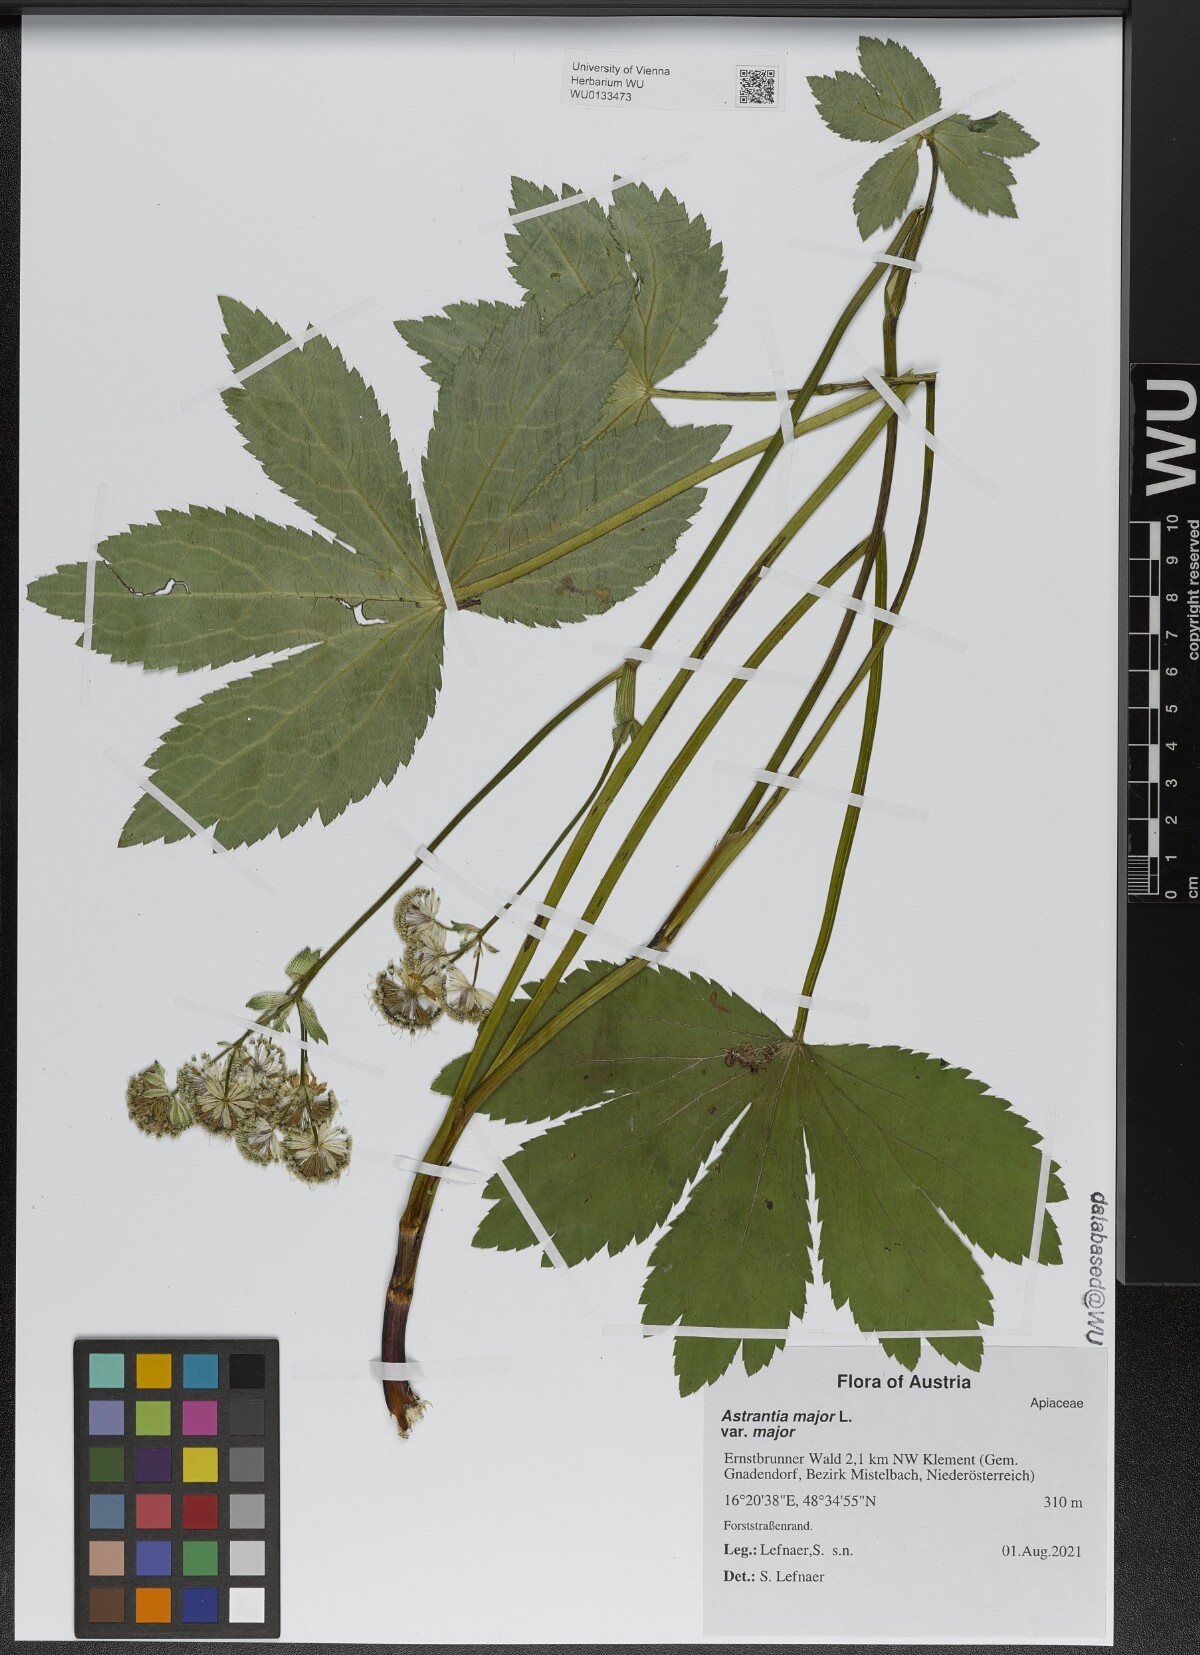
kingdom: Plantae
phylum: Tracheophyta
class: Magnoliopsida
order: Apiales
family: Apiaceae
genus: Astrantia
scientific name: Astrantia major
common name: Greater masterwort
